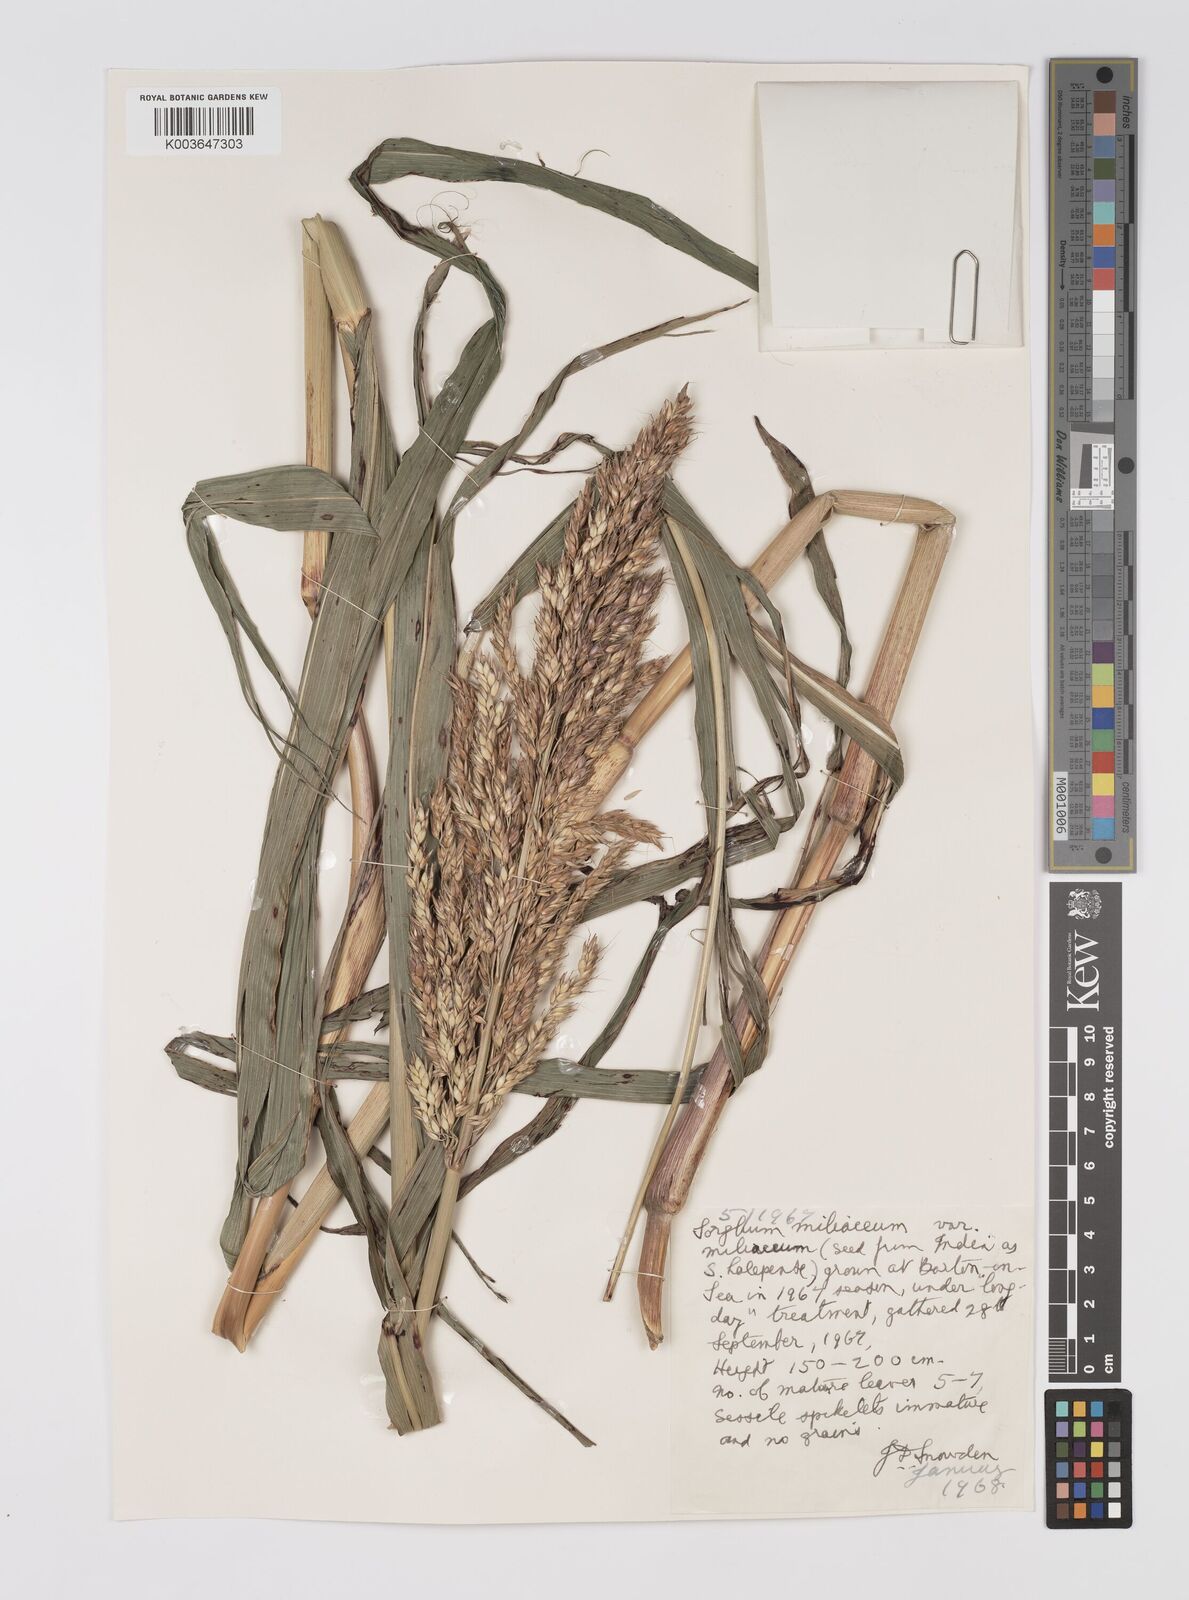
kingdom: Plantae
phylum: Tracheophyta
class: Liliopsida
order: Poales
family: Poaceae
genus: Sorghum
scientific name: Sorghum halepense
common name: Johnson-grass
